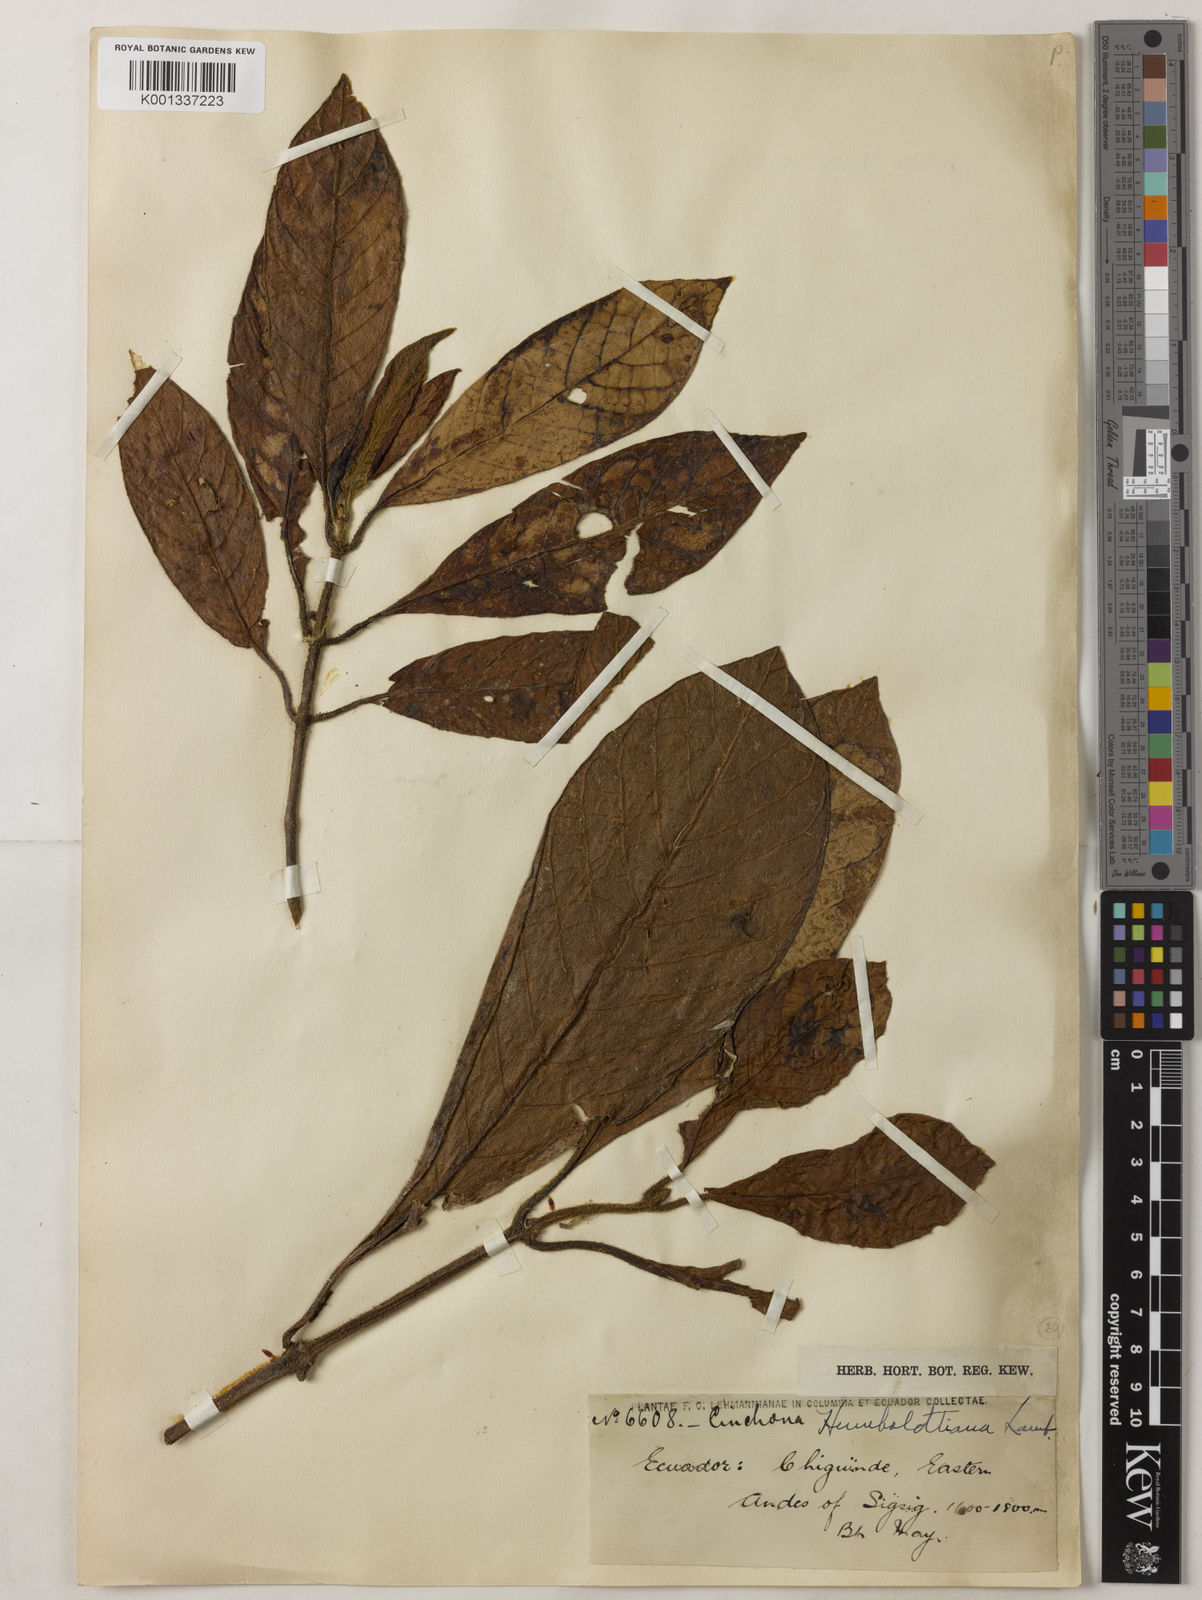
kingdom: Plantae
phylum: Tracheophyta
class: Magnoliopsida
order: Gentianales
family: Rubiaceae
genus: Cinchona
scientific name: Cinchona villosa
